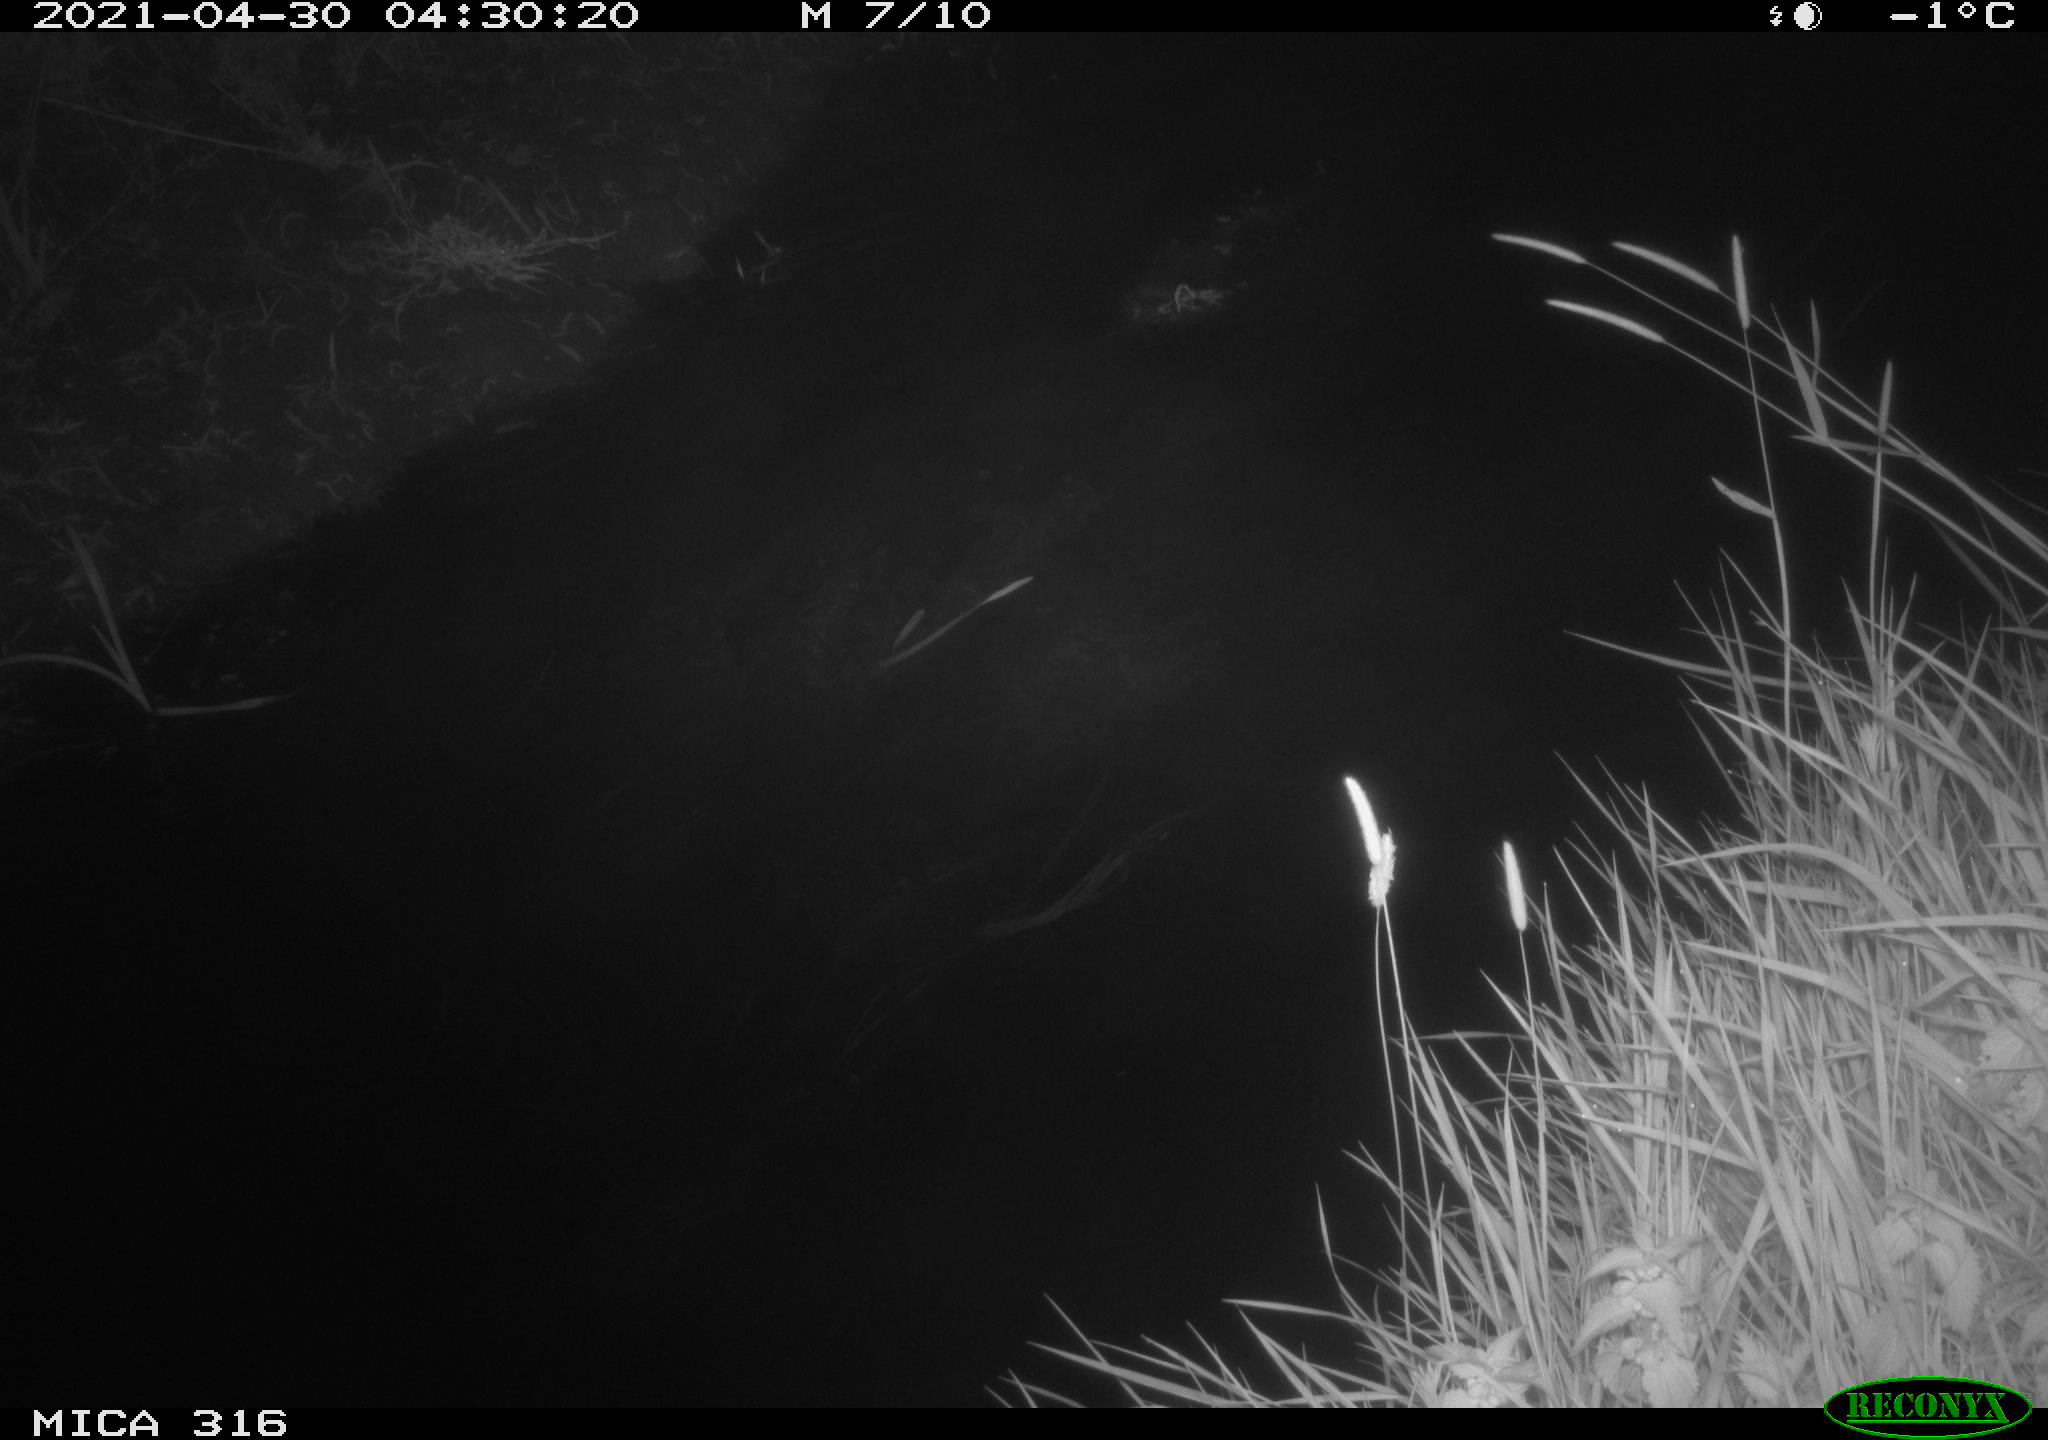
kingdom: Animalia
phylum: Chordata
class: Aves
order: Anseriformes
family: Anatidae
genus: Anas
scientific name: Anas platyrhynchos
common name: Mallard
